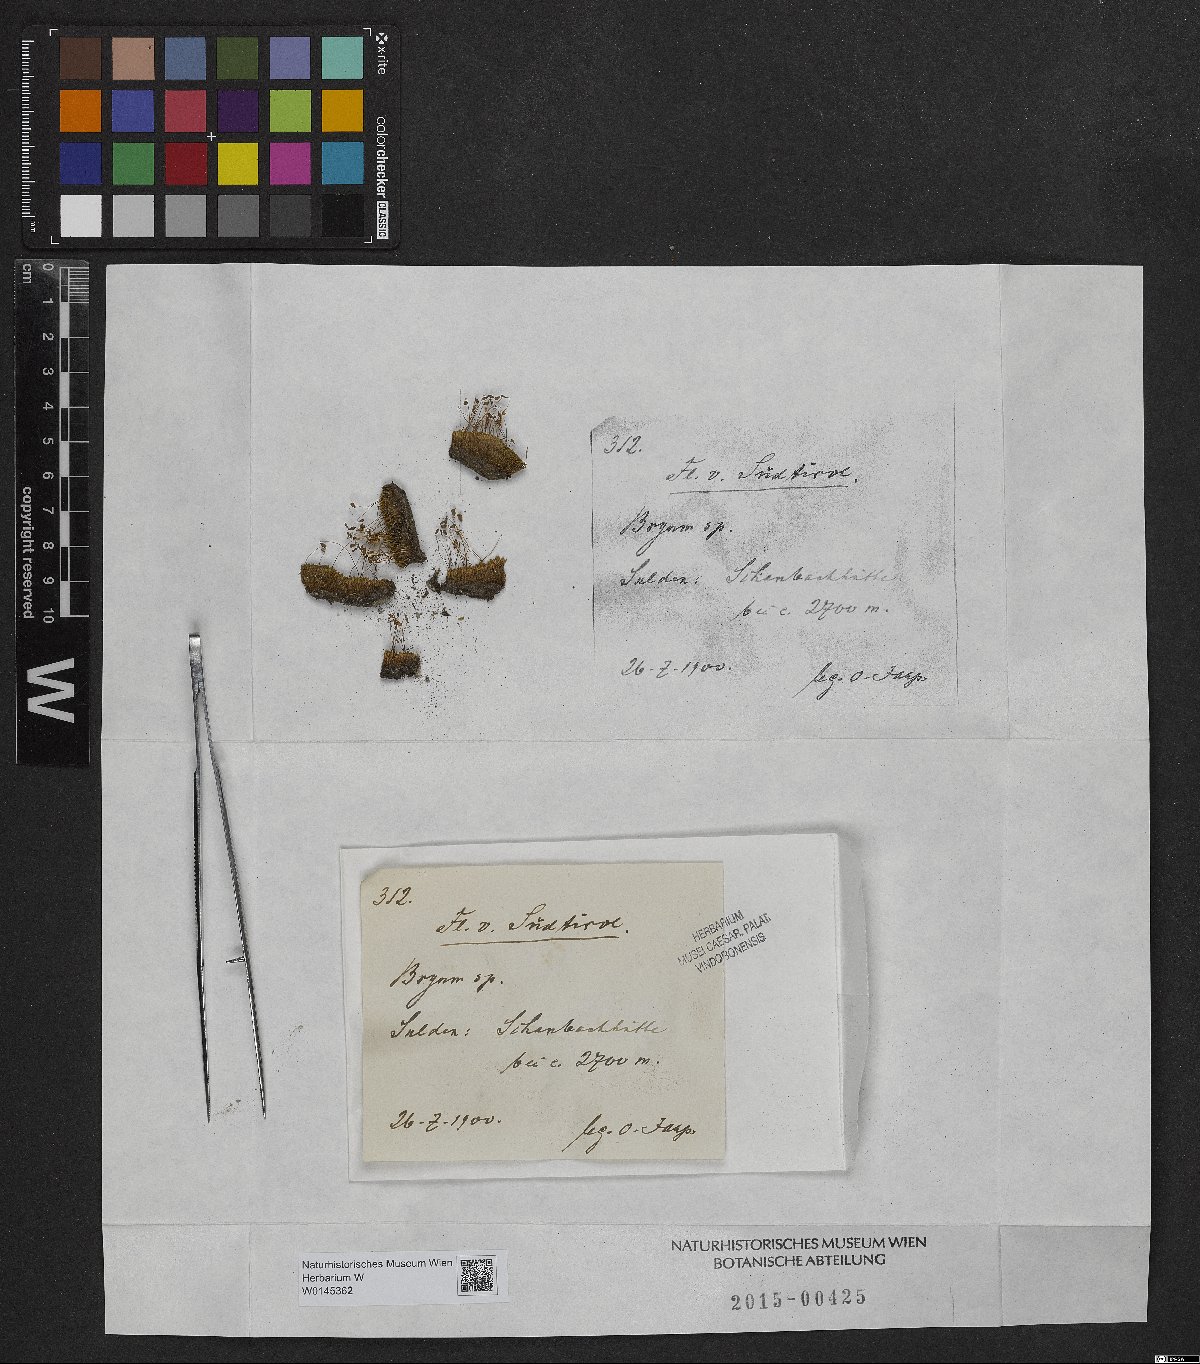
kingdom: Plantae
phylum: Bryophyta
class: Bryopsida
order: Bryales
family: Bryaceae
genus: Bryum
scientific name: Bryum
